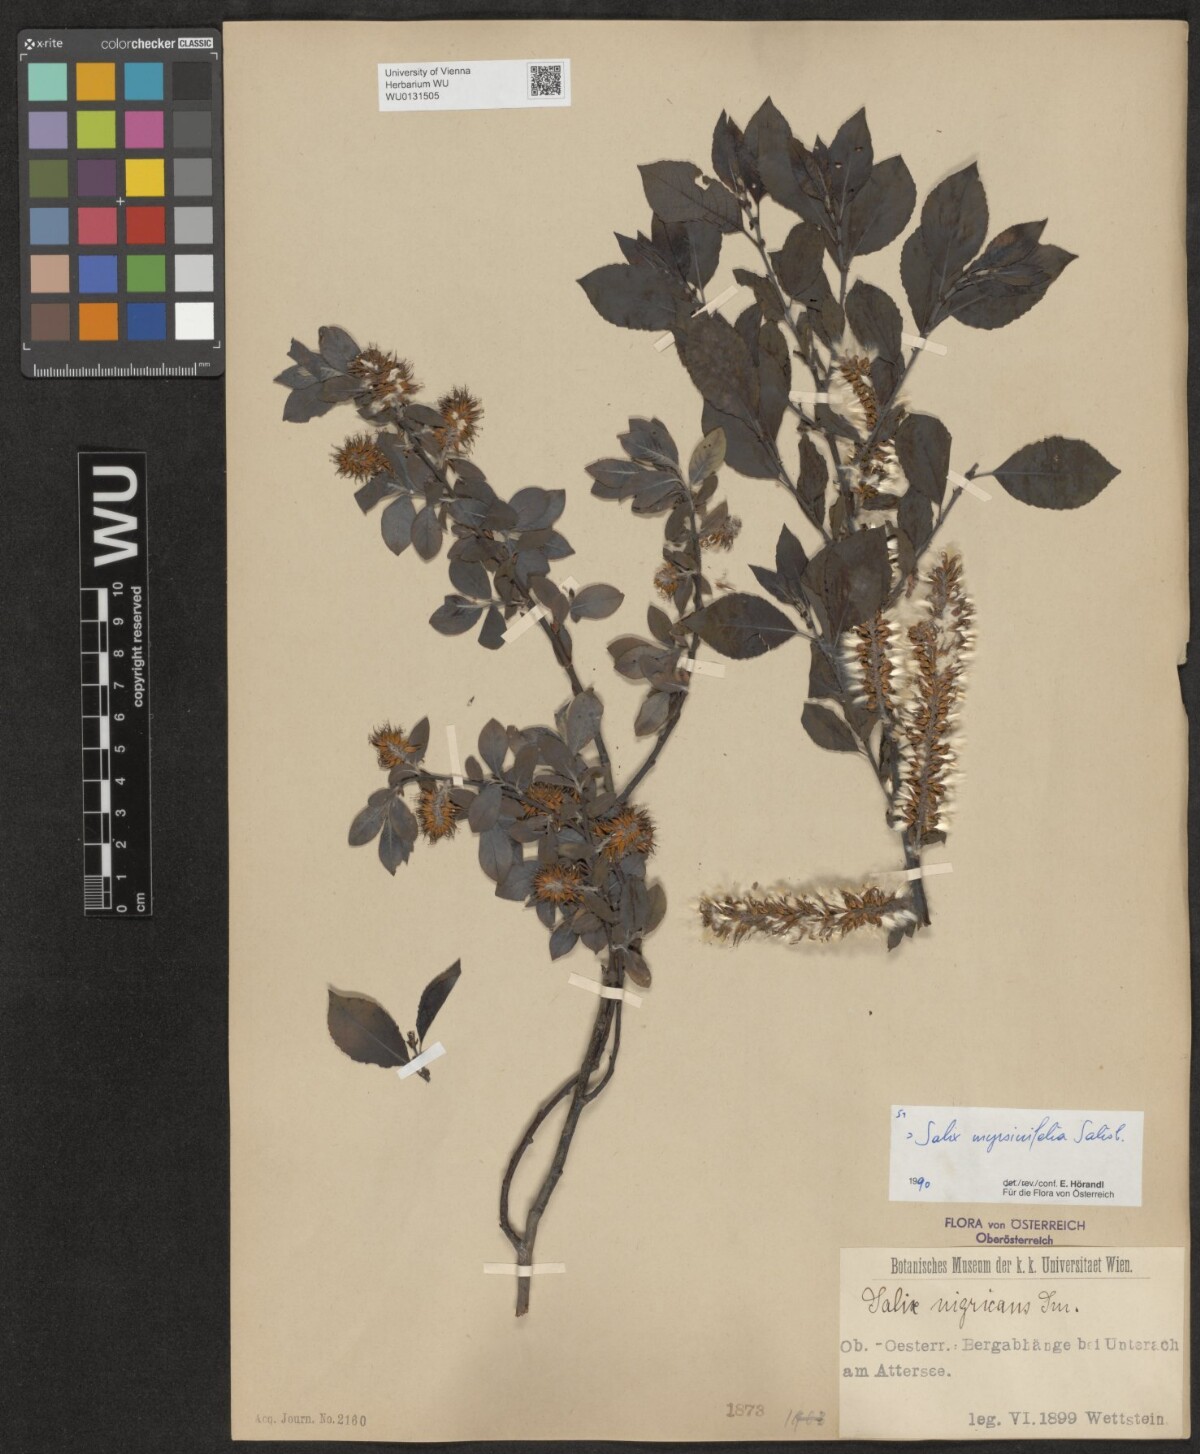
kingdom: Plantae
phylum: Tracheophyta
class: Magnoliopsida
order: Malpighiales
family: Salicaceae
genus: Salix
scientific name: Salix myrsinifolia
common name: Dark-leaved willow
